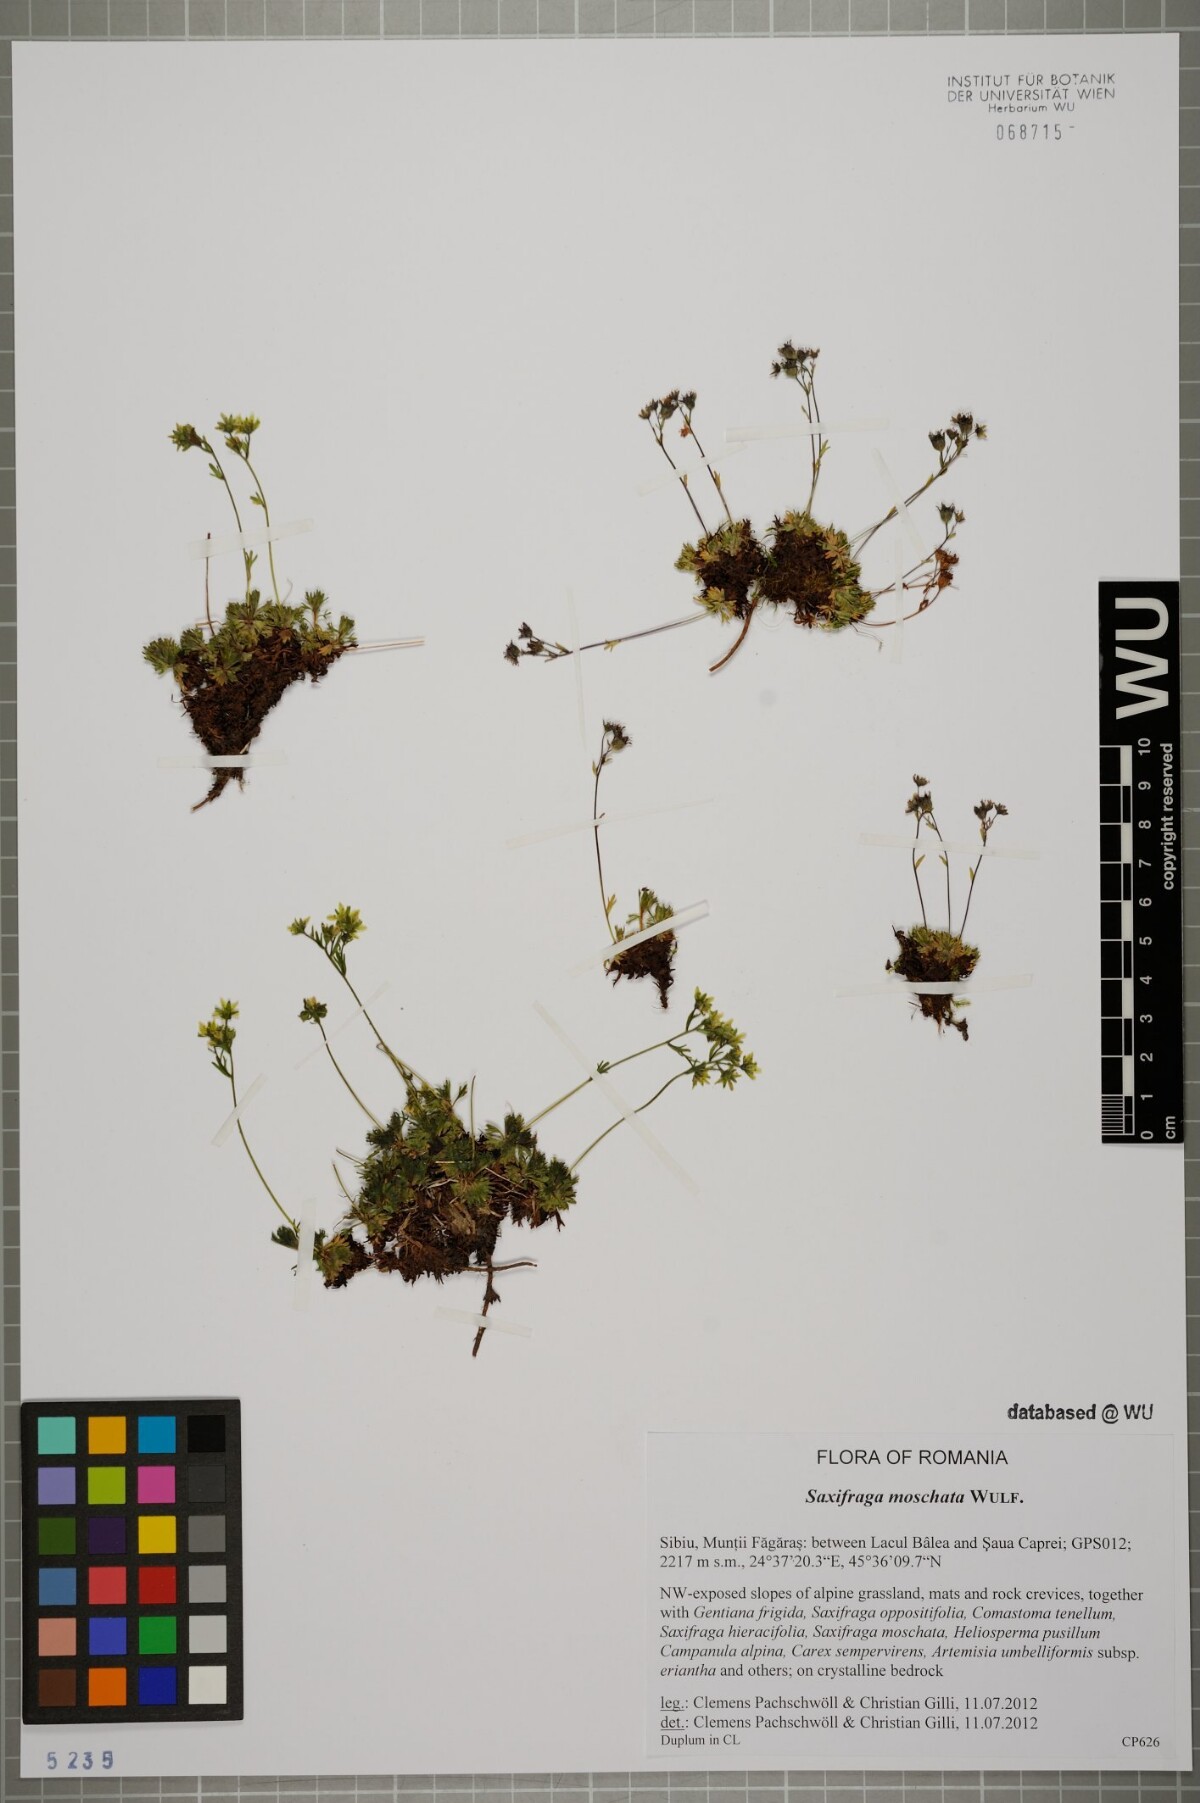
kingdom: Plantae
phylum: Tracheophyta
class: Magnoliopsida
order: Saxifragales
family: Saxifragaceae
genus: Saxifraga
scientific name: Saxifraga moschata
